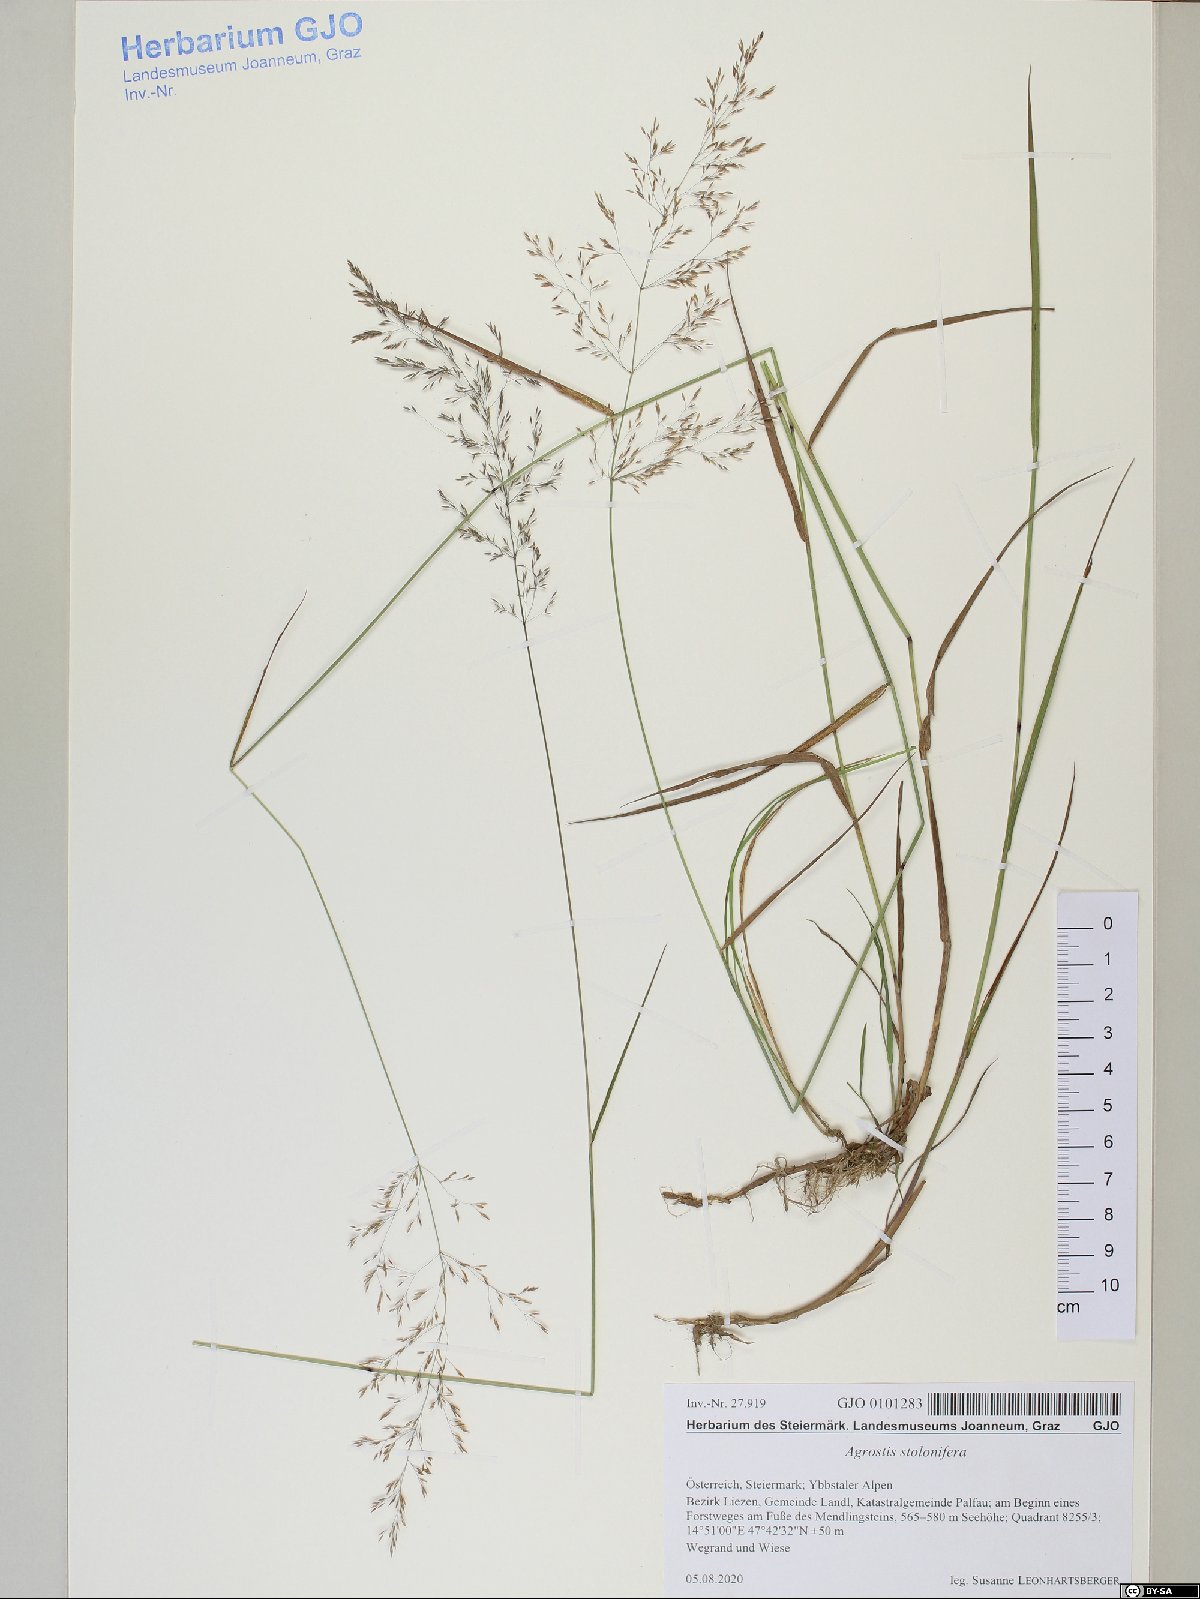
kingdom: Plantae
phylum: Tracheophyta
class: Liliopsida
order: Poales
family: Poaceae
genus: Agrostis
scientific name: Agrostis stolonifera
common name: Creeping bentgrass
